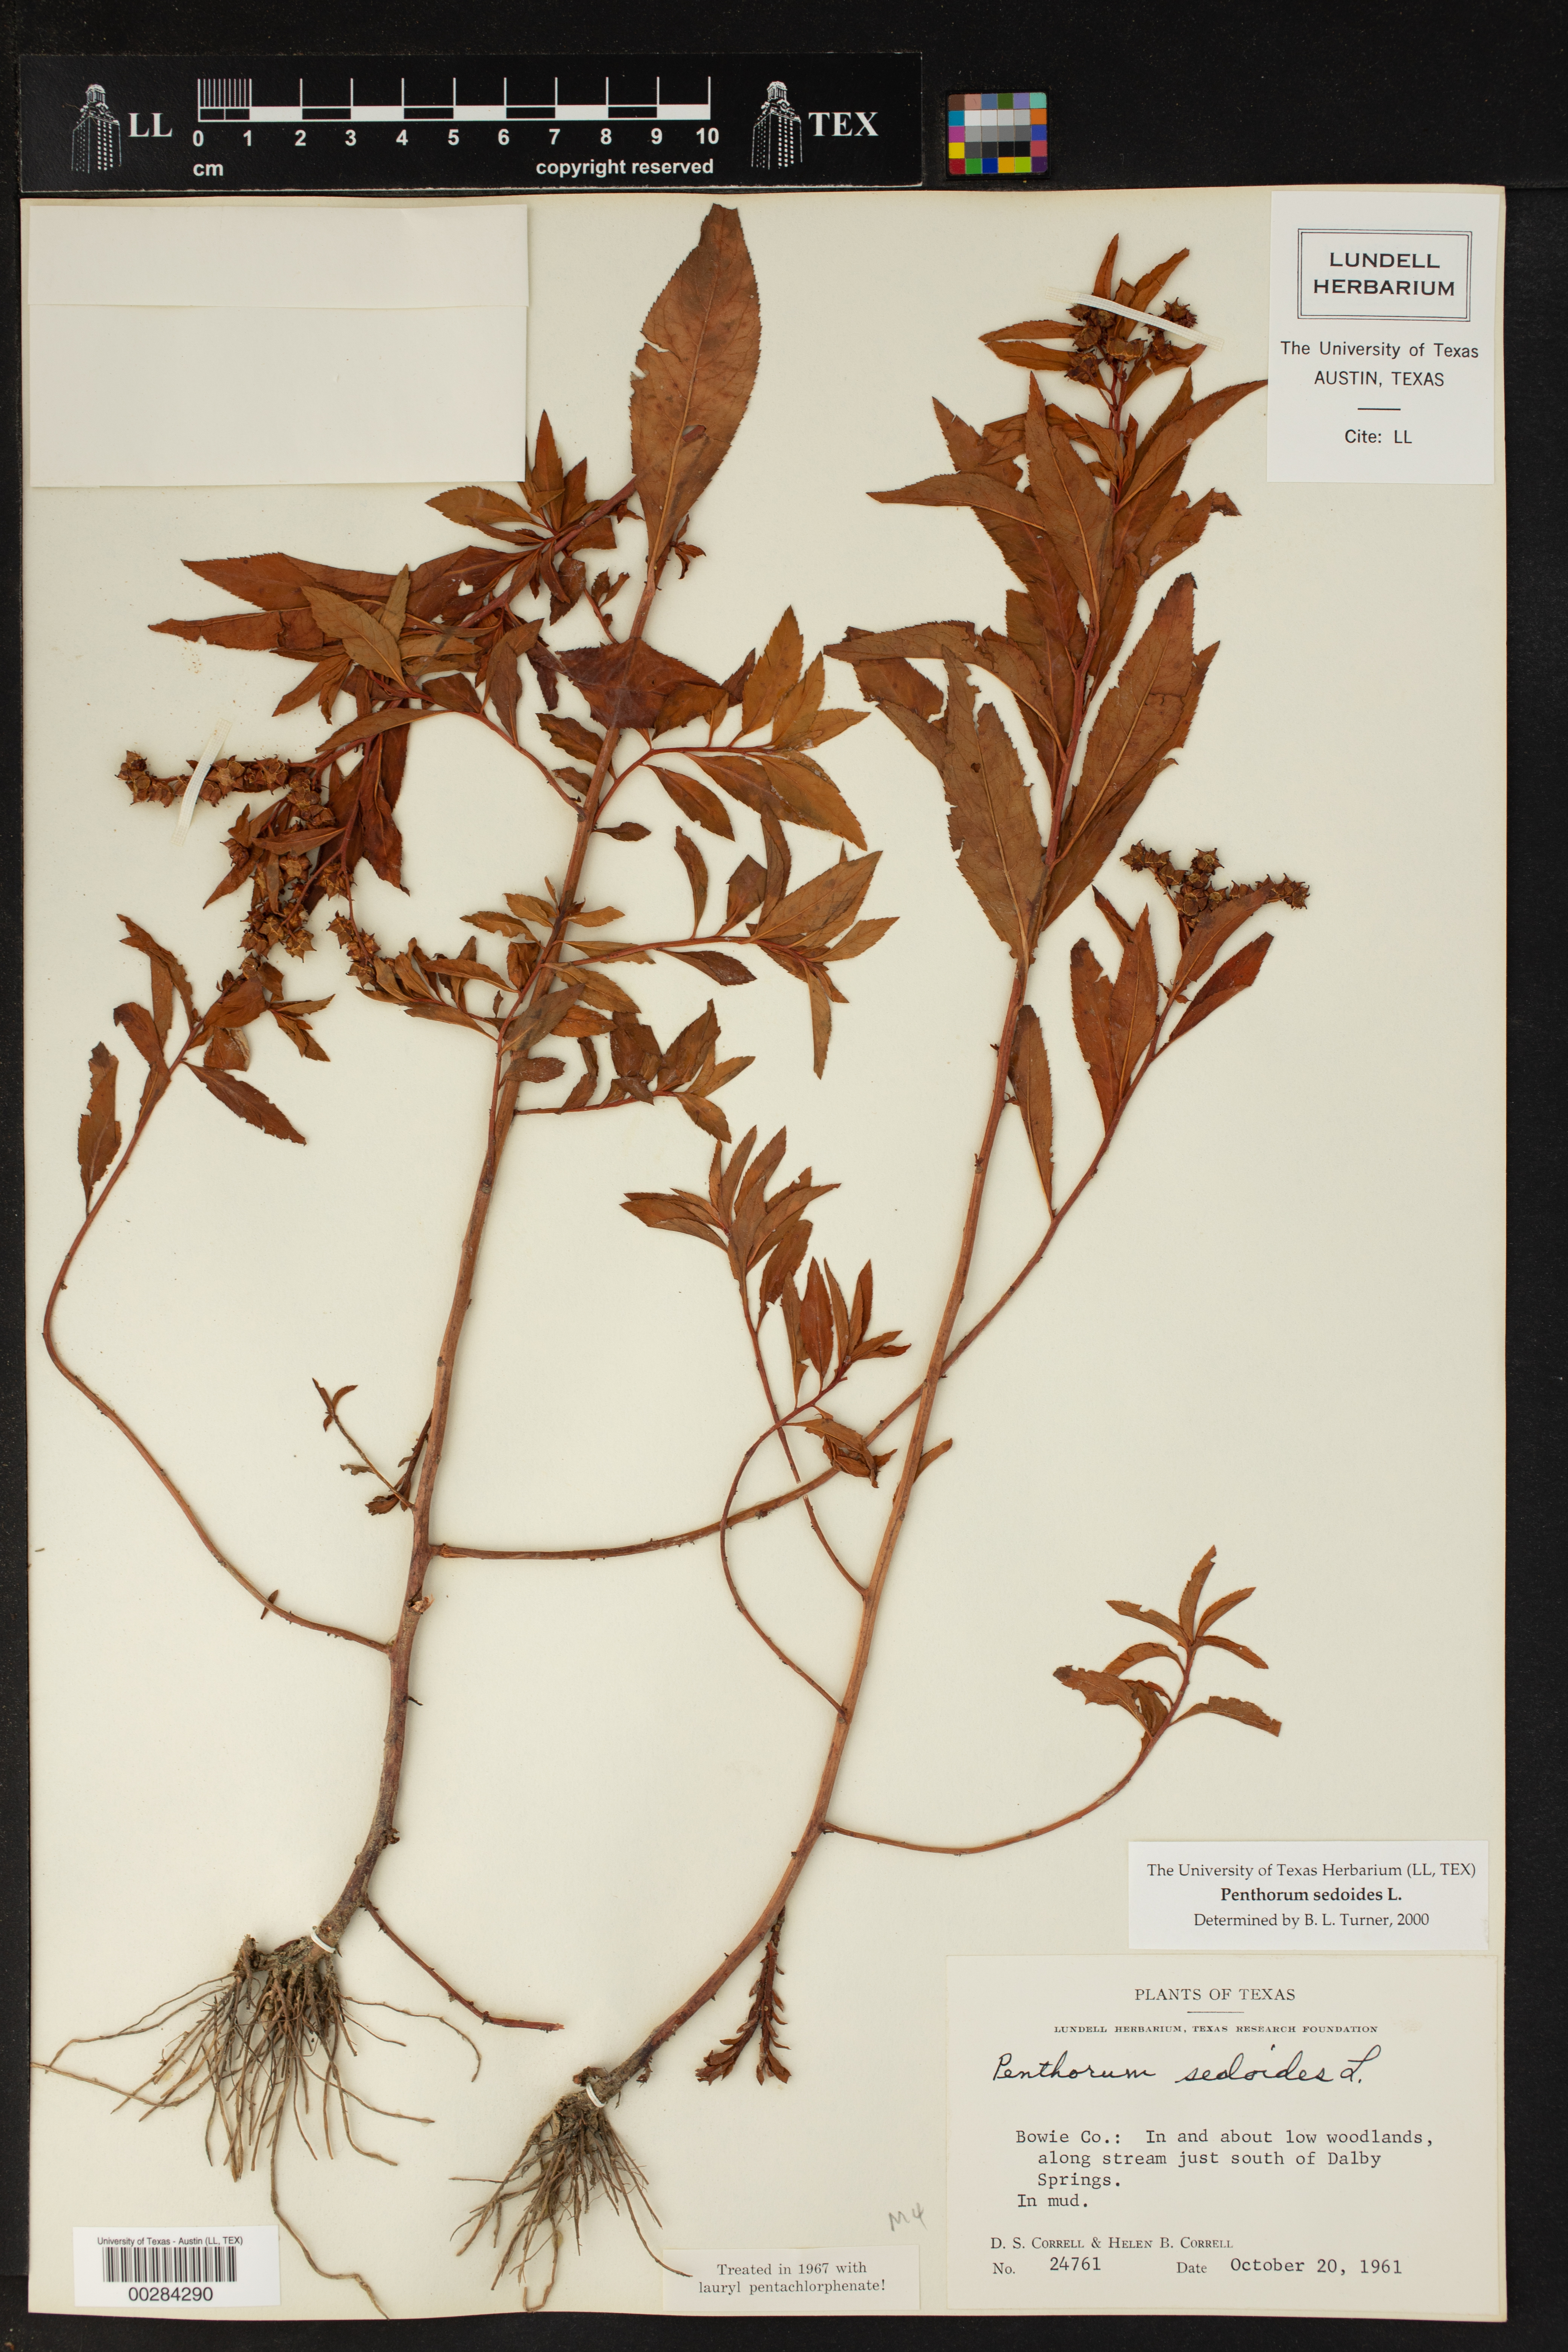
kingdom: Plantae
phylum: Tracheophyta
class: Magnoliopsida
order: Saxifragales
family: Penthoraceae
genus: Penthorum
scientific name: Penthorum sedoides
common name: Ditch stonecrop
